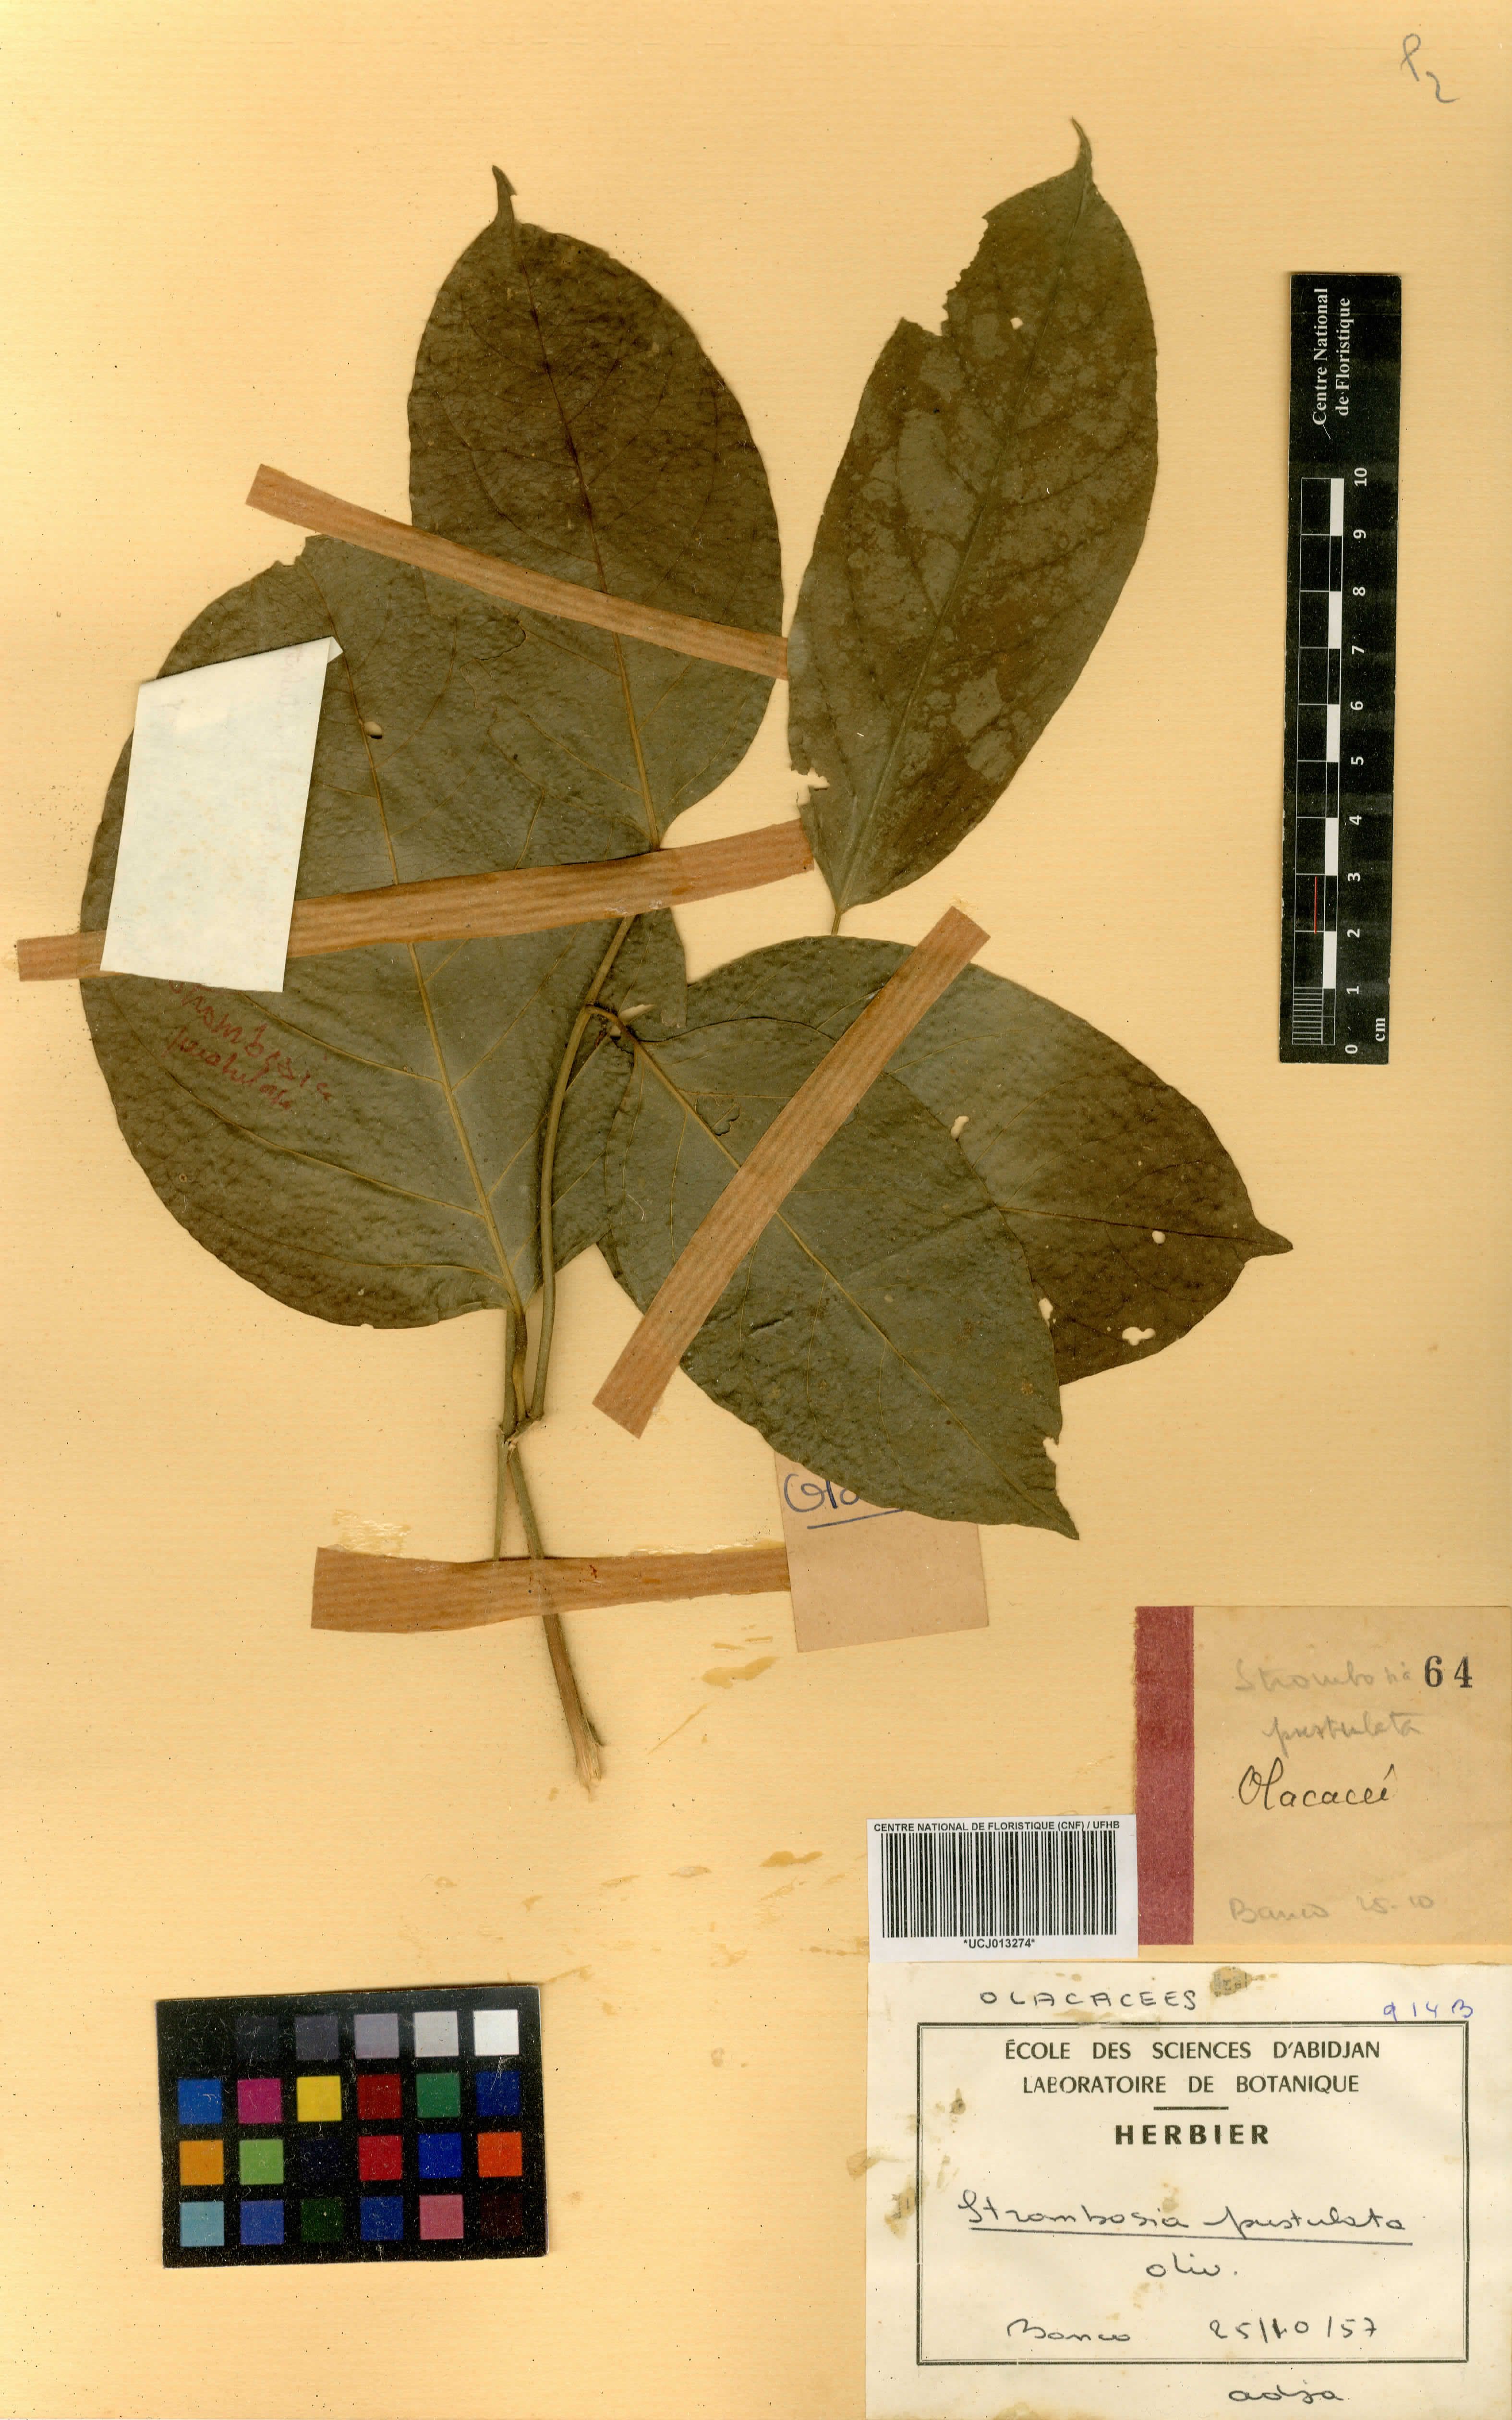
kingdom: Plantae
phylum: Tracheophyta
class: Magnoliopsida
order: Santalales
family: Strombosiaceae
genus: Strombosia
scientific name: Strombosia pustulata
